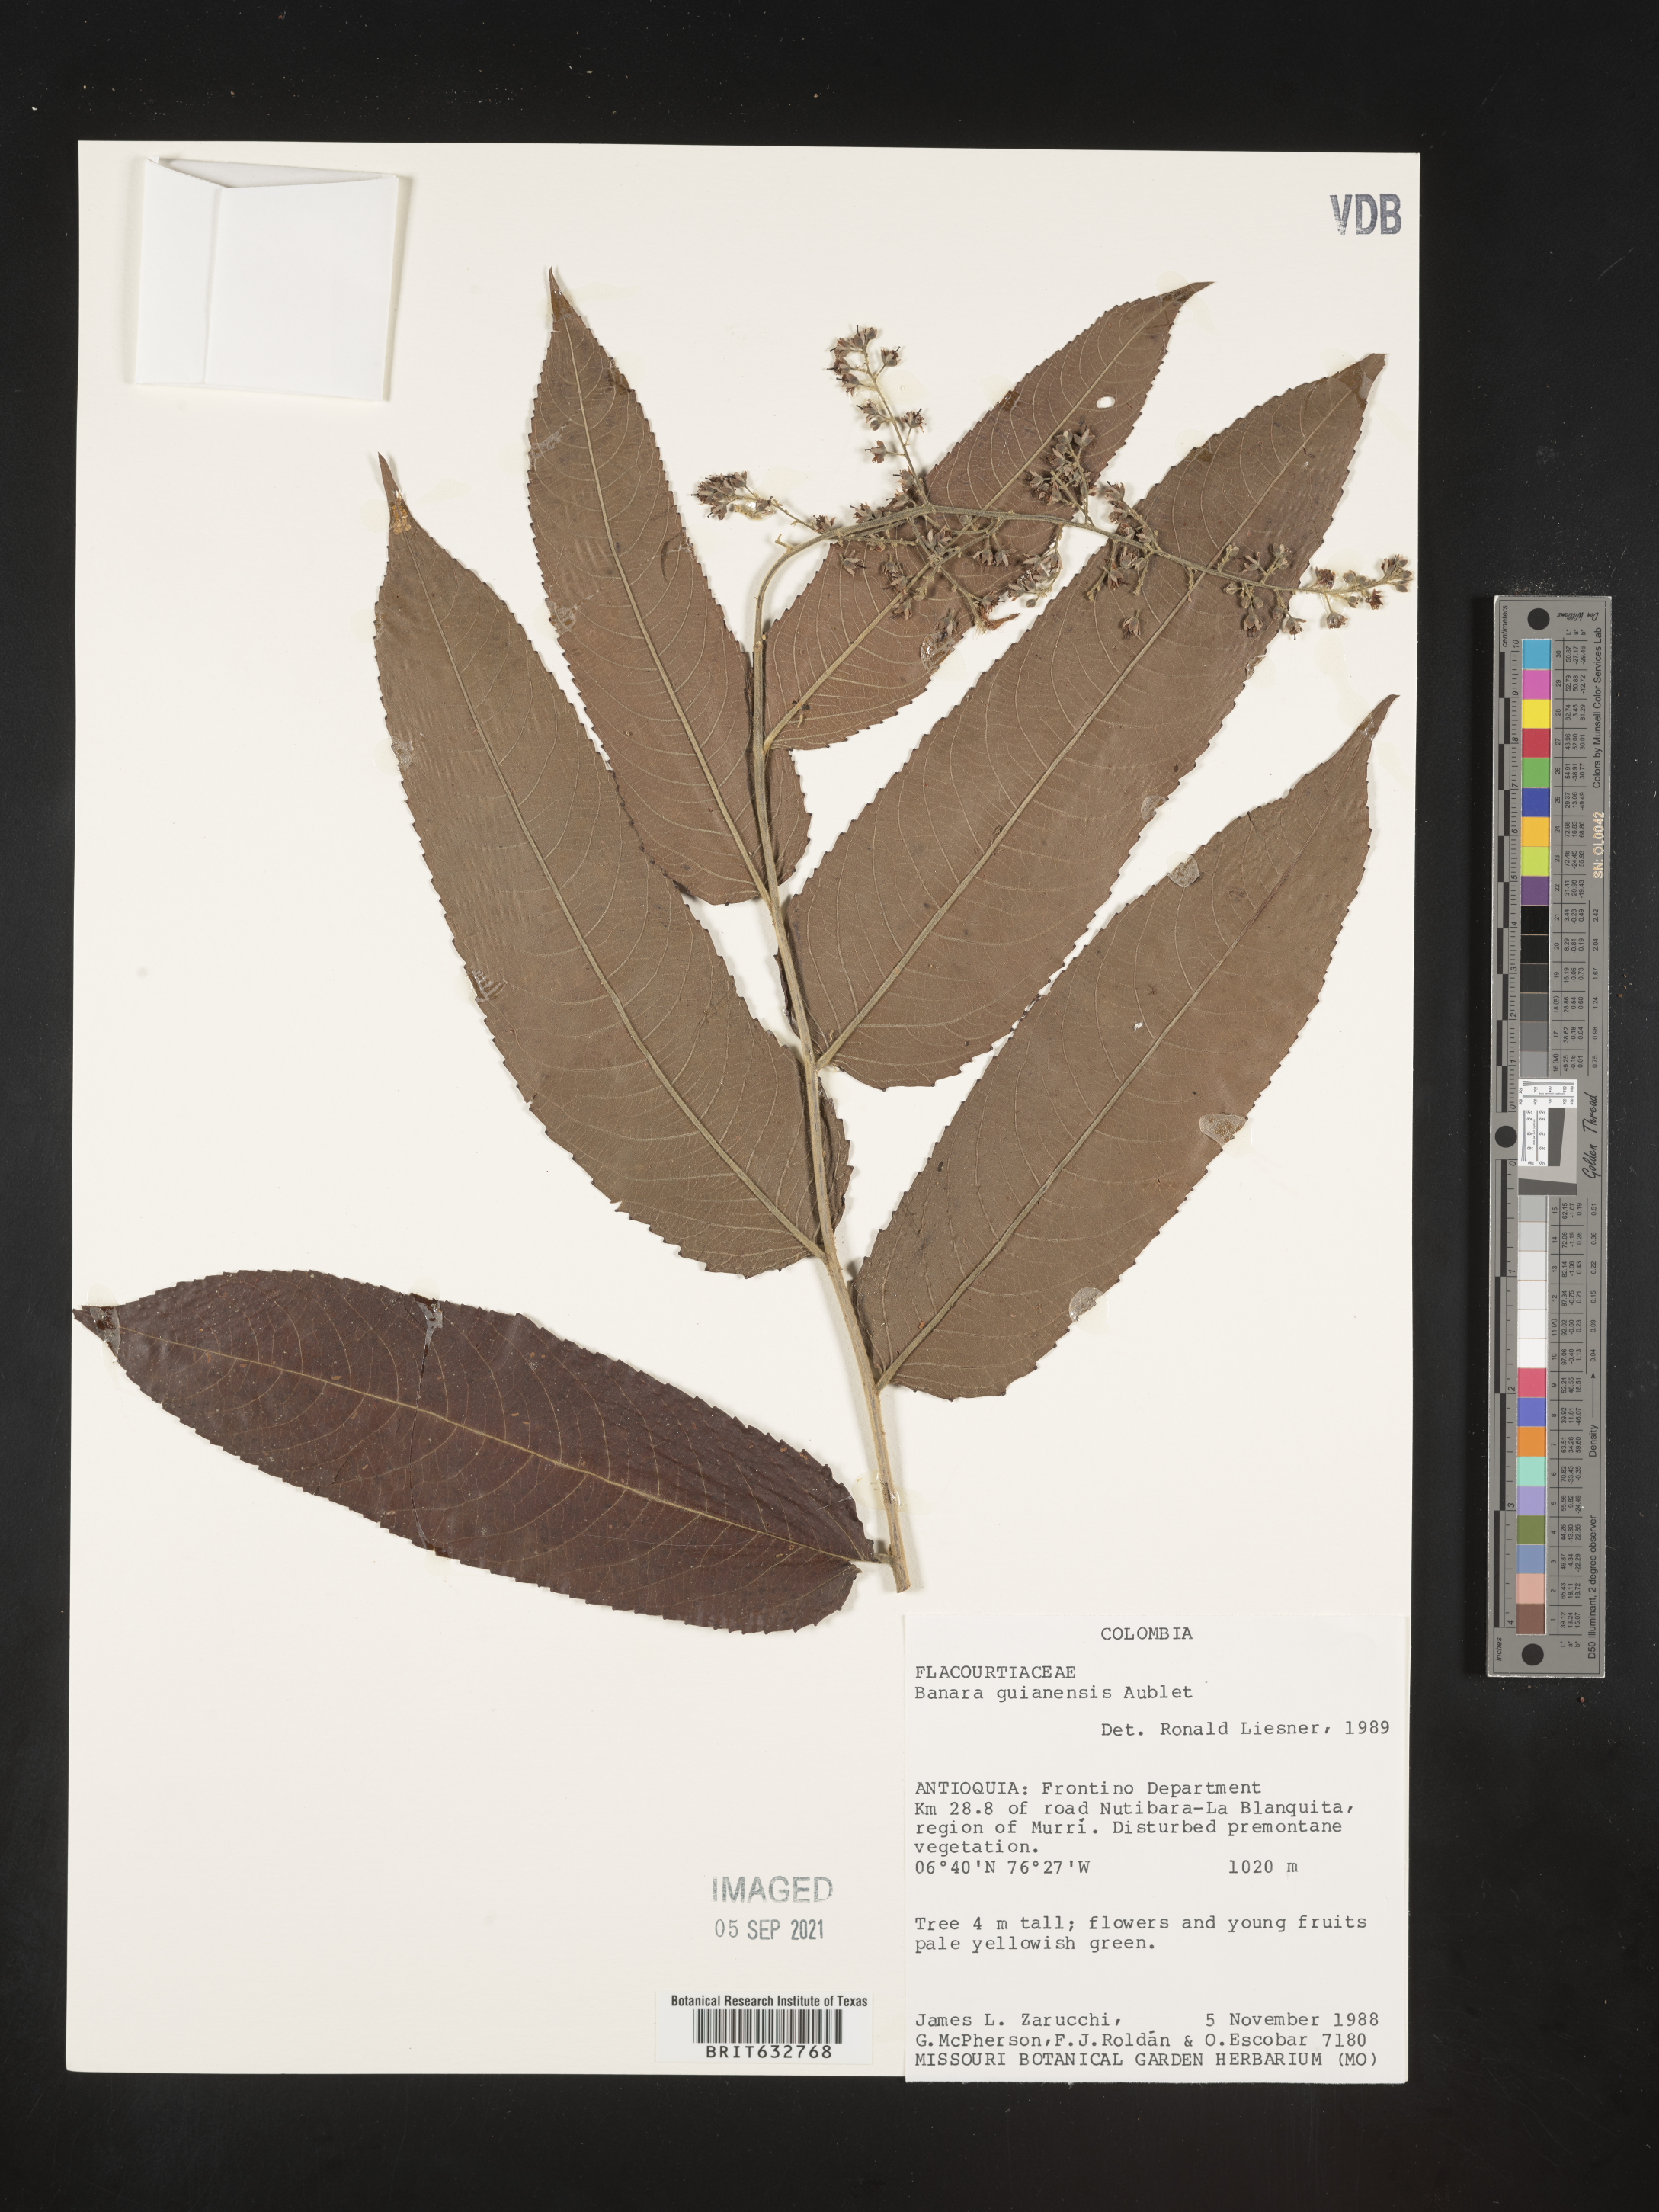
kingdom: Plantae
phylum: Tracheophyta
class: Magnoliopsida
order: Malpighiales
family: Salicaceae
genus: Banara
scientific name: Banara
